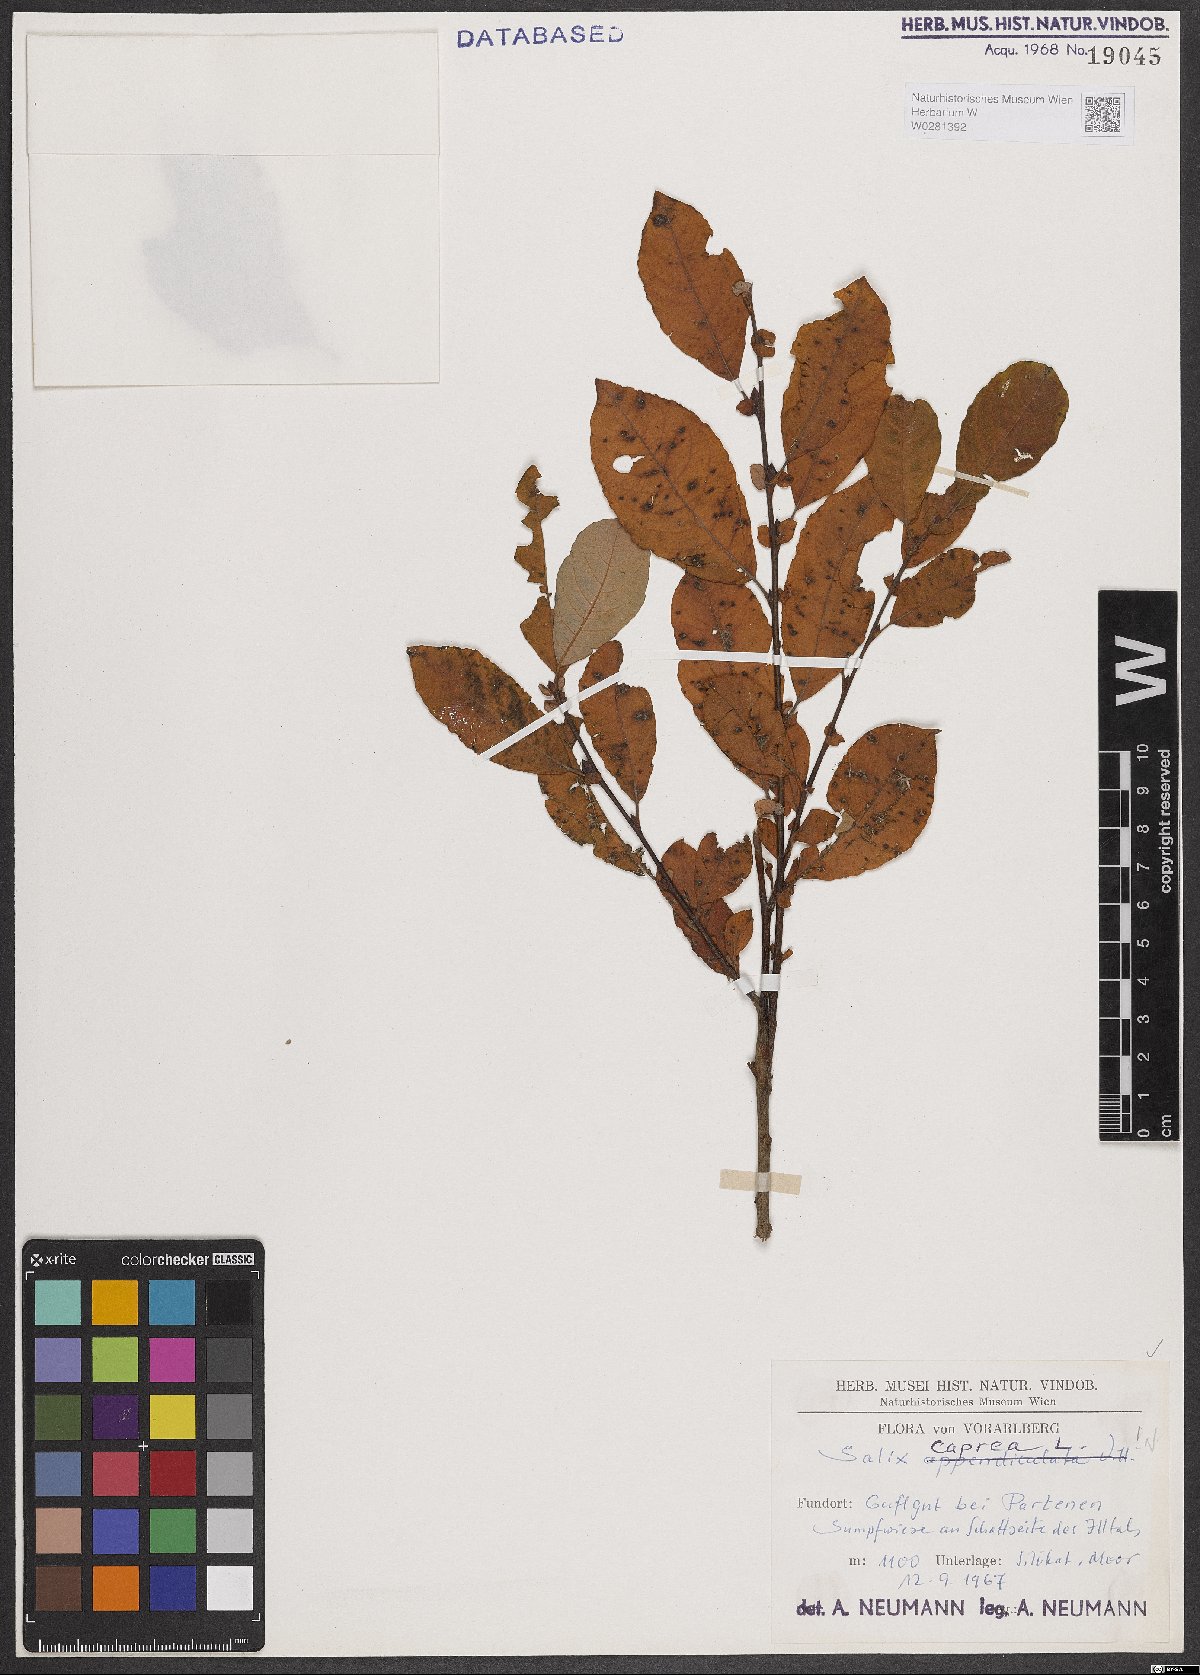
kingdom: Plantae
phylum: Tracheophyta
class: Magnoliopsida
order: Malpighiales
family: Salicaceae
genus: Salix
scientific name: Salix caprea
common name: Goat willow
